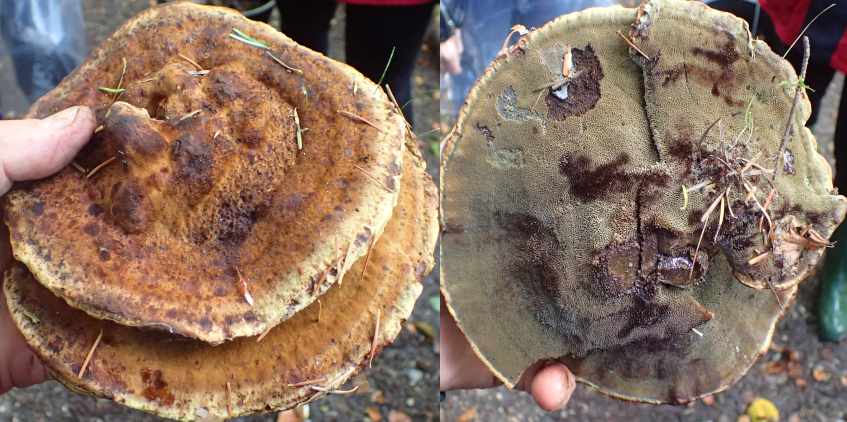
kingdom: Fungi
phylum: Basidiomycota
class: Agaricomycetes
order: Polyporales
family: Laetiporaceae
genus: Phaeolus
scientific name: Phaeolus schweinitzii
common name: brunporesvamp
